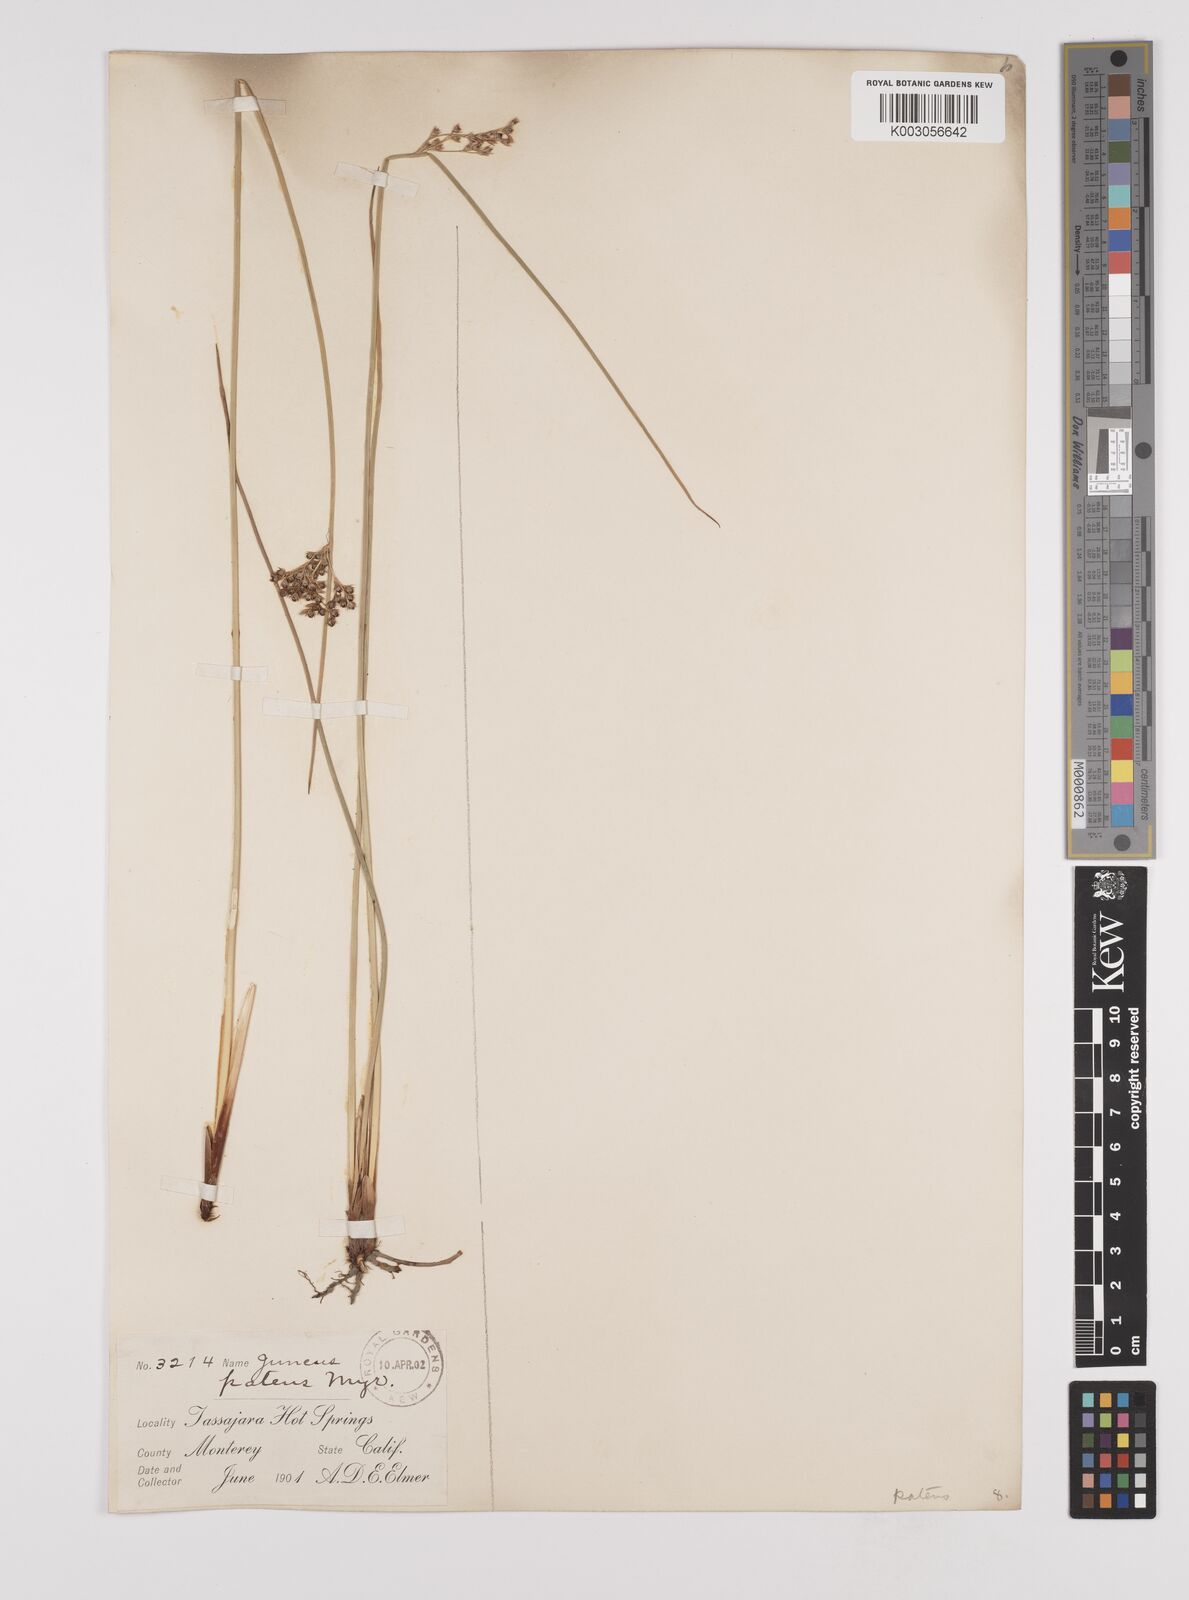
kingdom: Plantae
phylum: Tracheophyta
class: Liliopsida
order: Poales
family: Juncaceae
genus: Juncus
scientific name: Juncus patens
